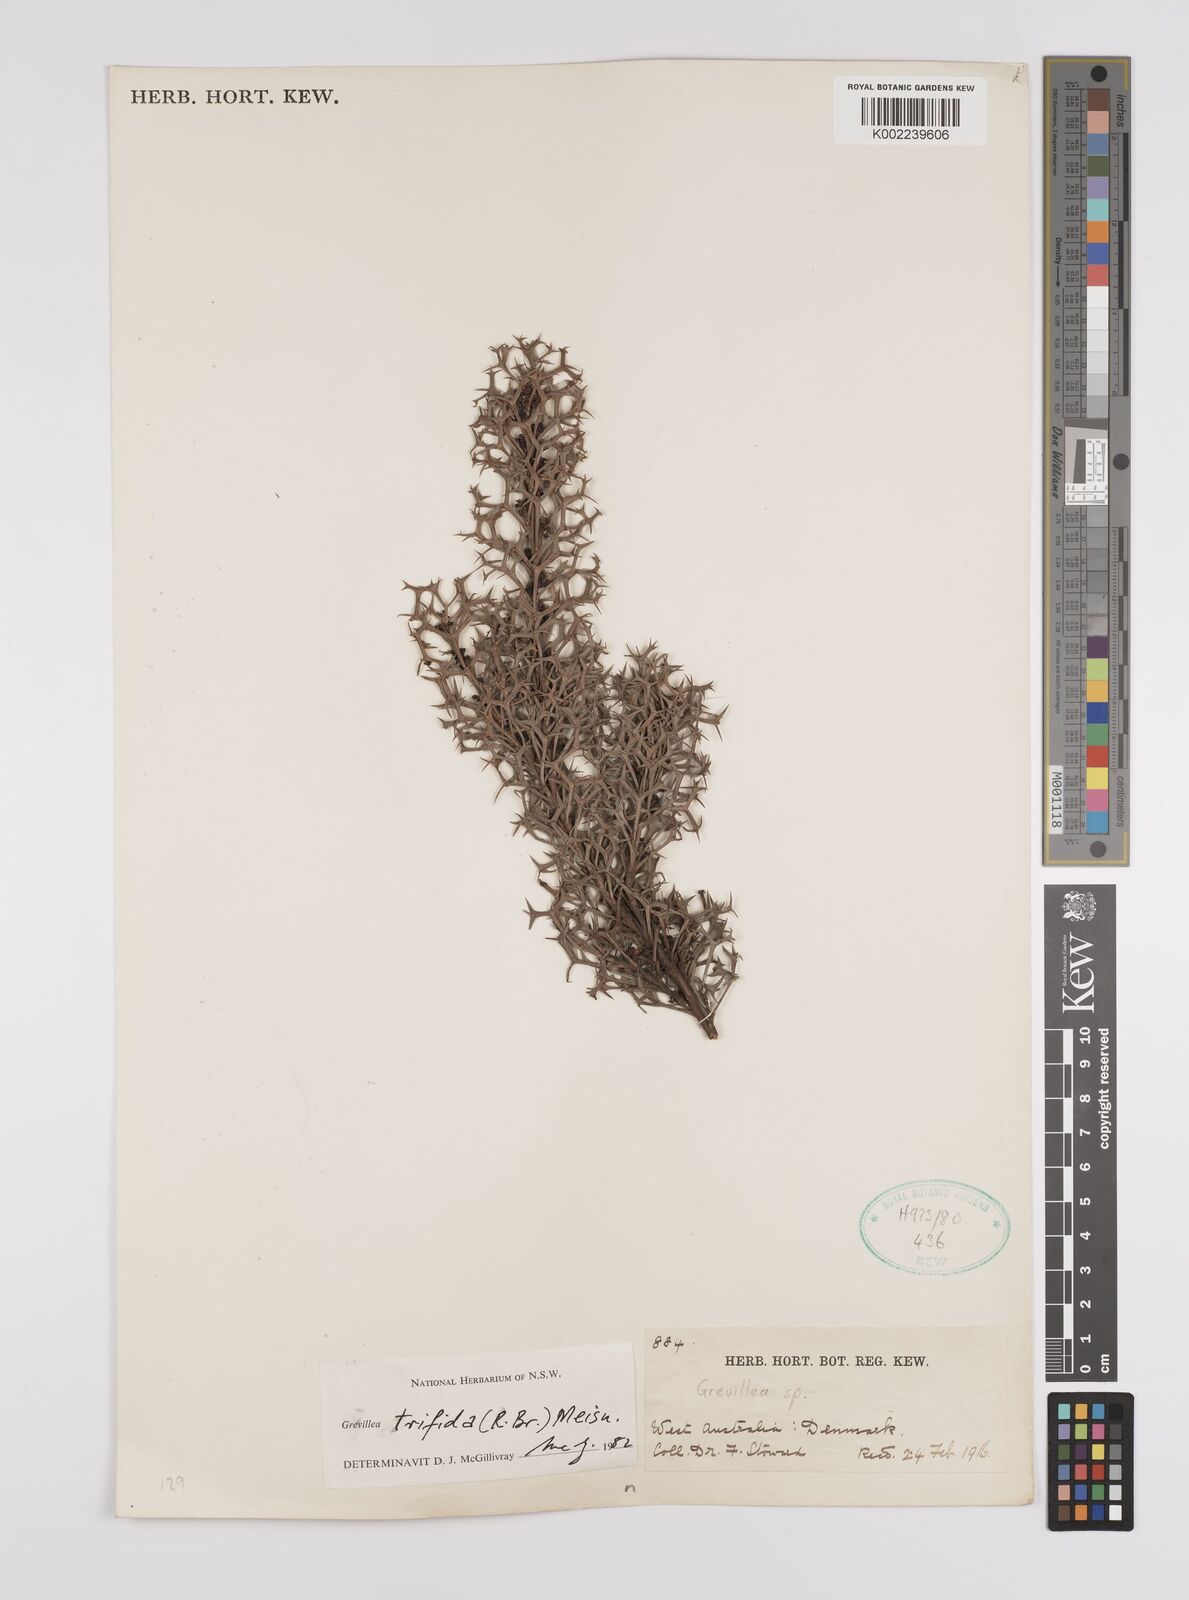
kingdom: Plantae
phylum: Tracheophyta
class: Magnoliopsida
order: Proteales
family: Proteaceae
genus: Grevillea
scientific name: Grevillea trifida
